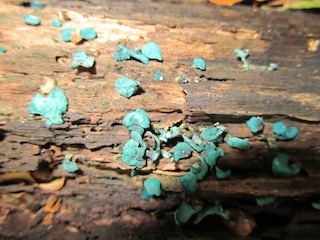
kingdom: Fungi
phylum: Ascomycota
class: Leotiomycetes
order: Helotiales
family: Chlorociboriaceae
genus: Chlorociboria
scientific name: Chlorociboria aeruginascens
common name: almindelig grønskive
